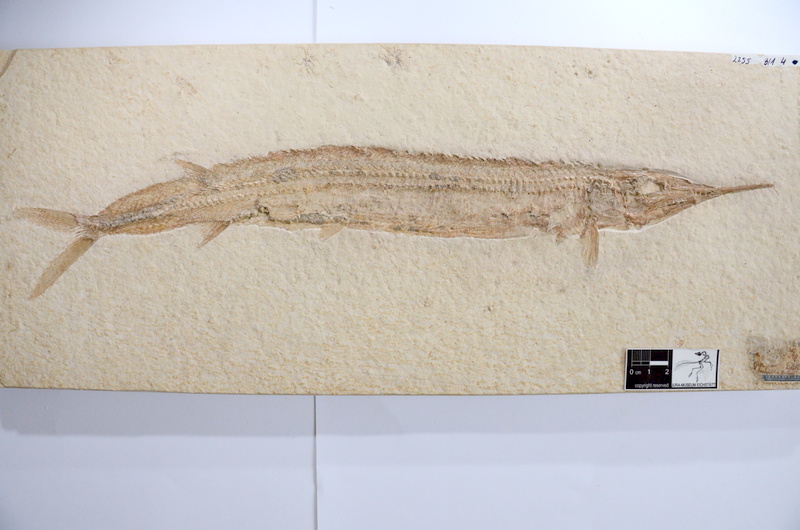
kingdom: Animalia
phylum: Chordata
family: Aspidorhynchidae
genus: Aspidorhynchus
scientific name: Aspidorhynchus acutirostris
